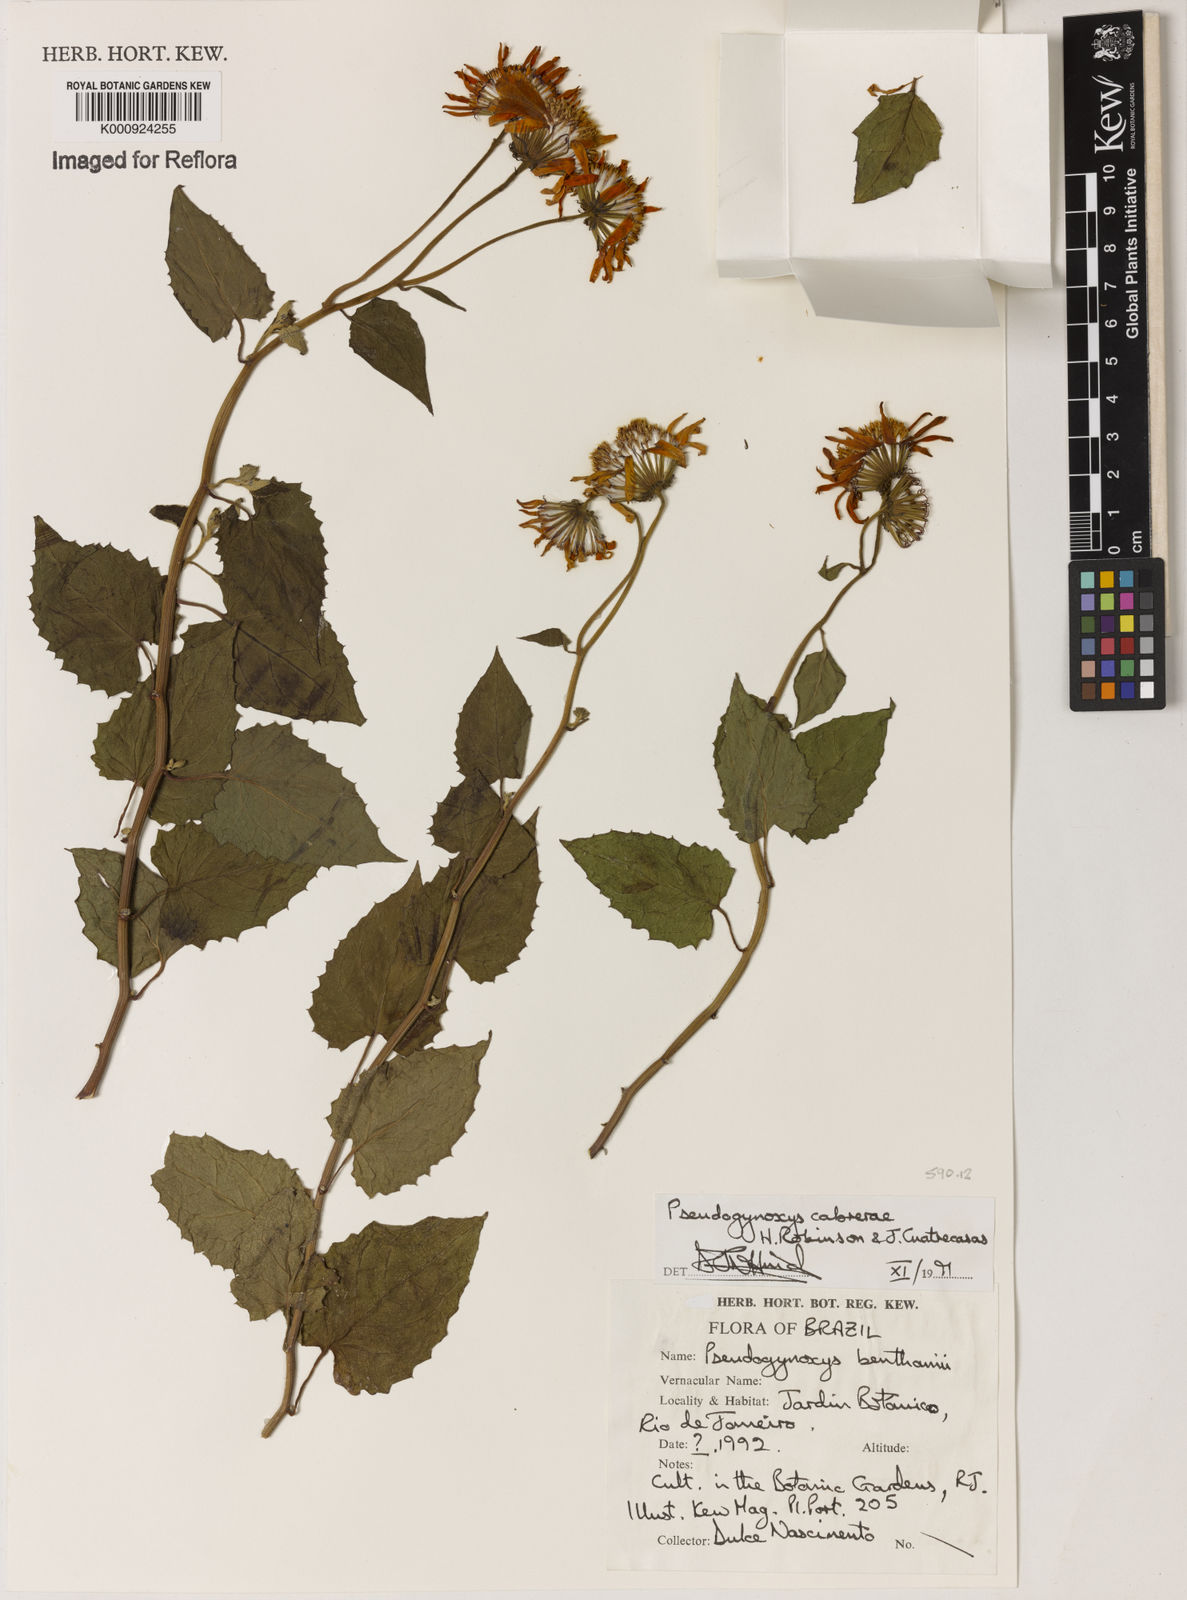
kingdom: Plantae
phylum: Tracheophyta
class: Magnoliopsida
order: Asterales
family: Asteraceae
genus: Pseudogynoxys
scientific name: Pseudogynoxys cumingii
